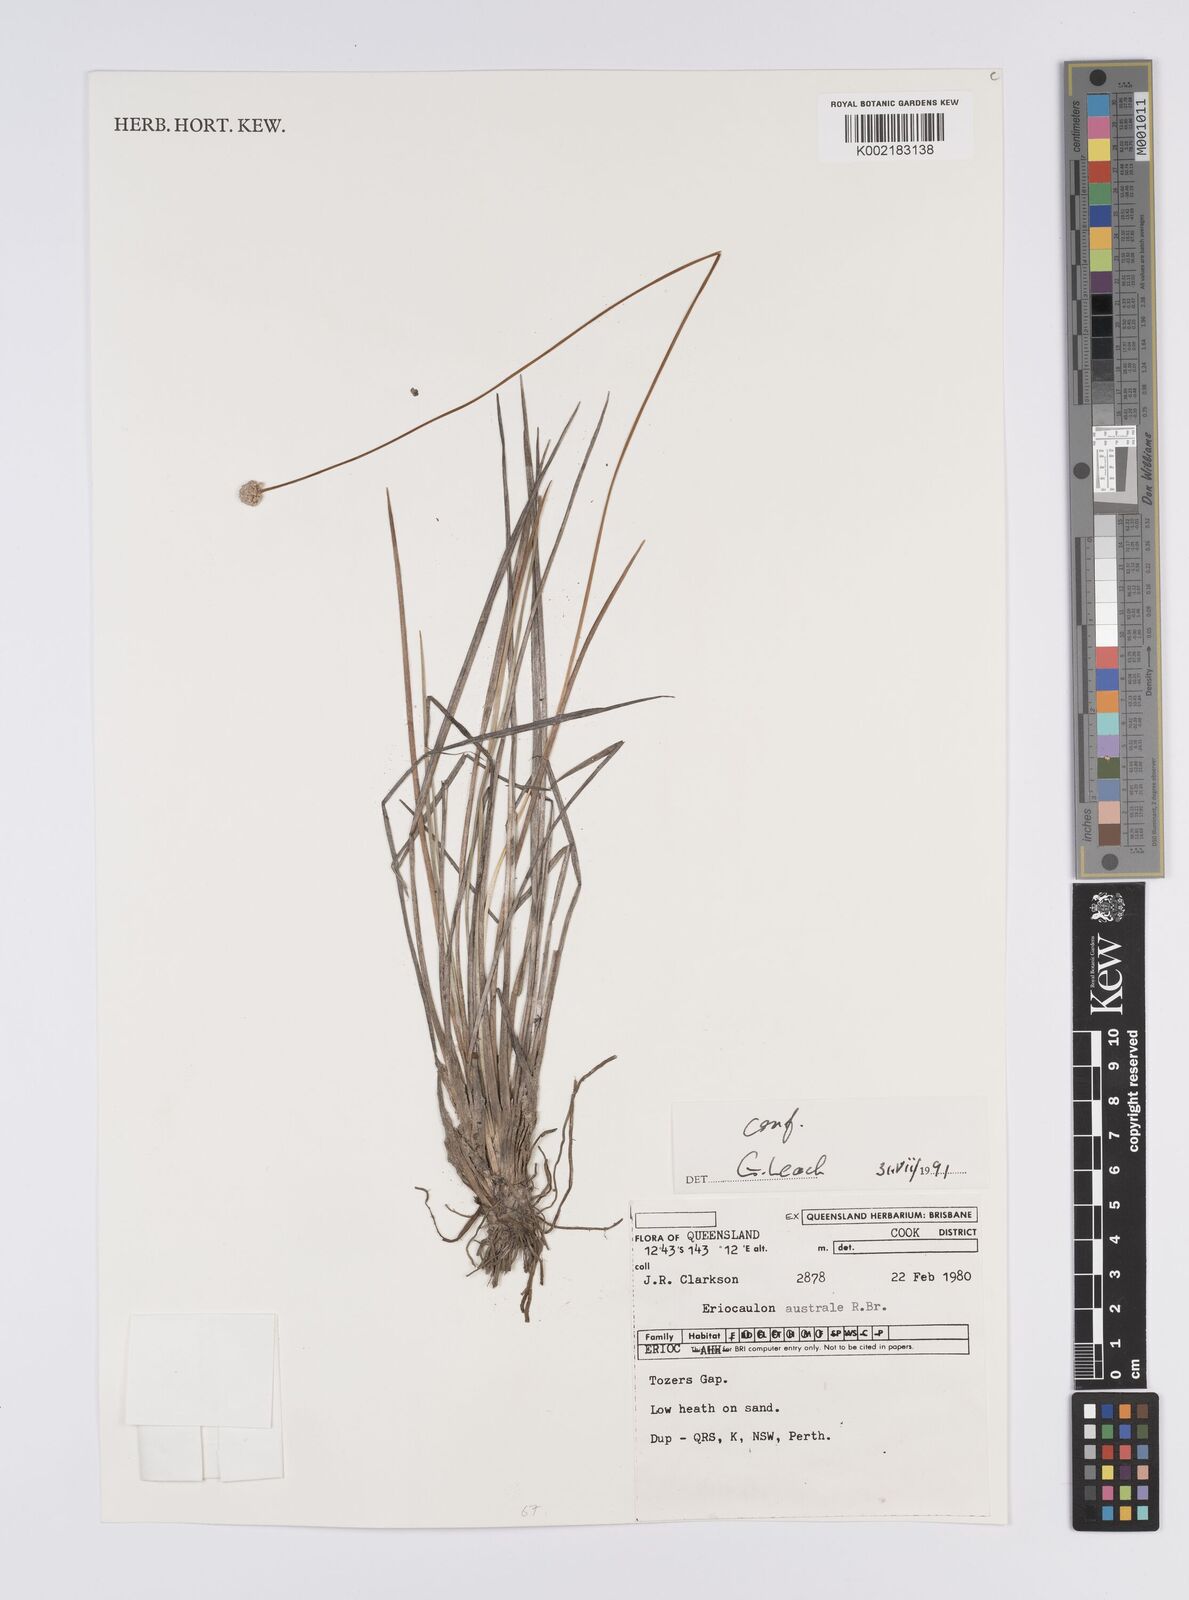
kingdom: Plantae
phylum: Tracheophyta
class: Liliopsida
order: Poales
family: Eriocaulaceae
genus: Eriocaulon
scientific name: Eriocaulon australe
